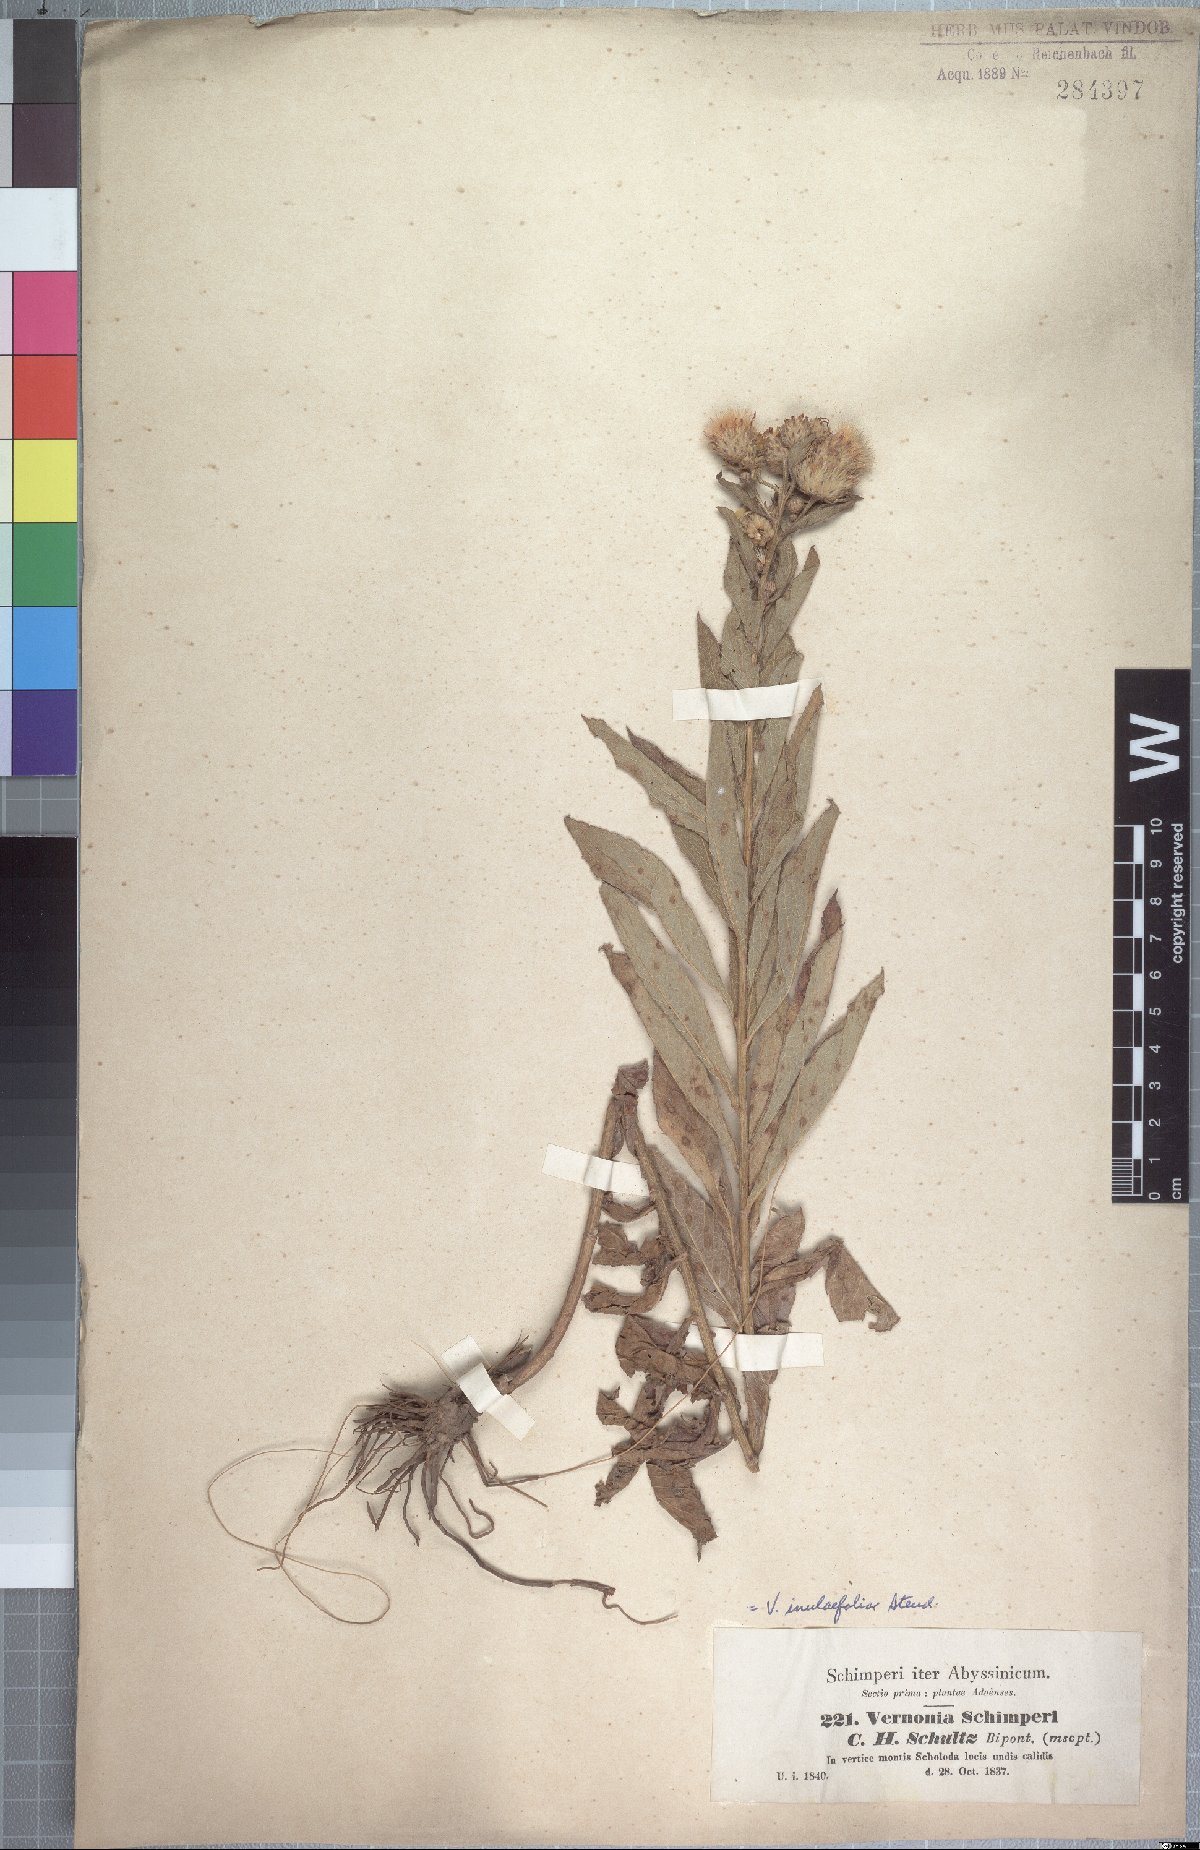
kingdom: Plantae
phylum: Tracheophyta
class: Magnoliopsida
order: Asterales
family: Asteraceae
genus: Nothovernonia
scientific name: Nothovernonia purpurea
